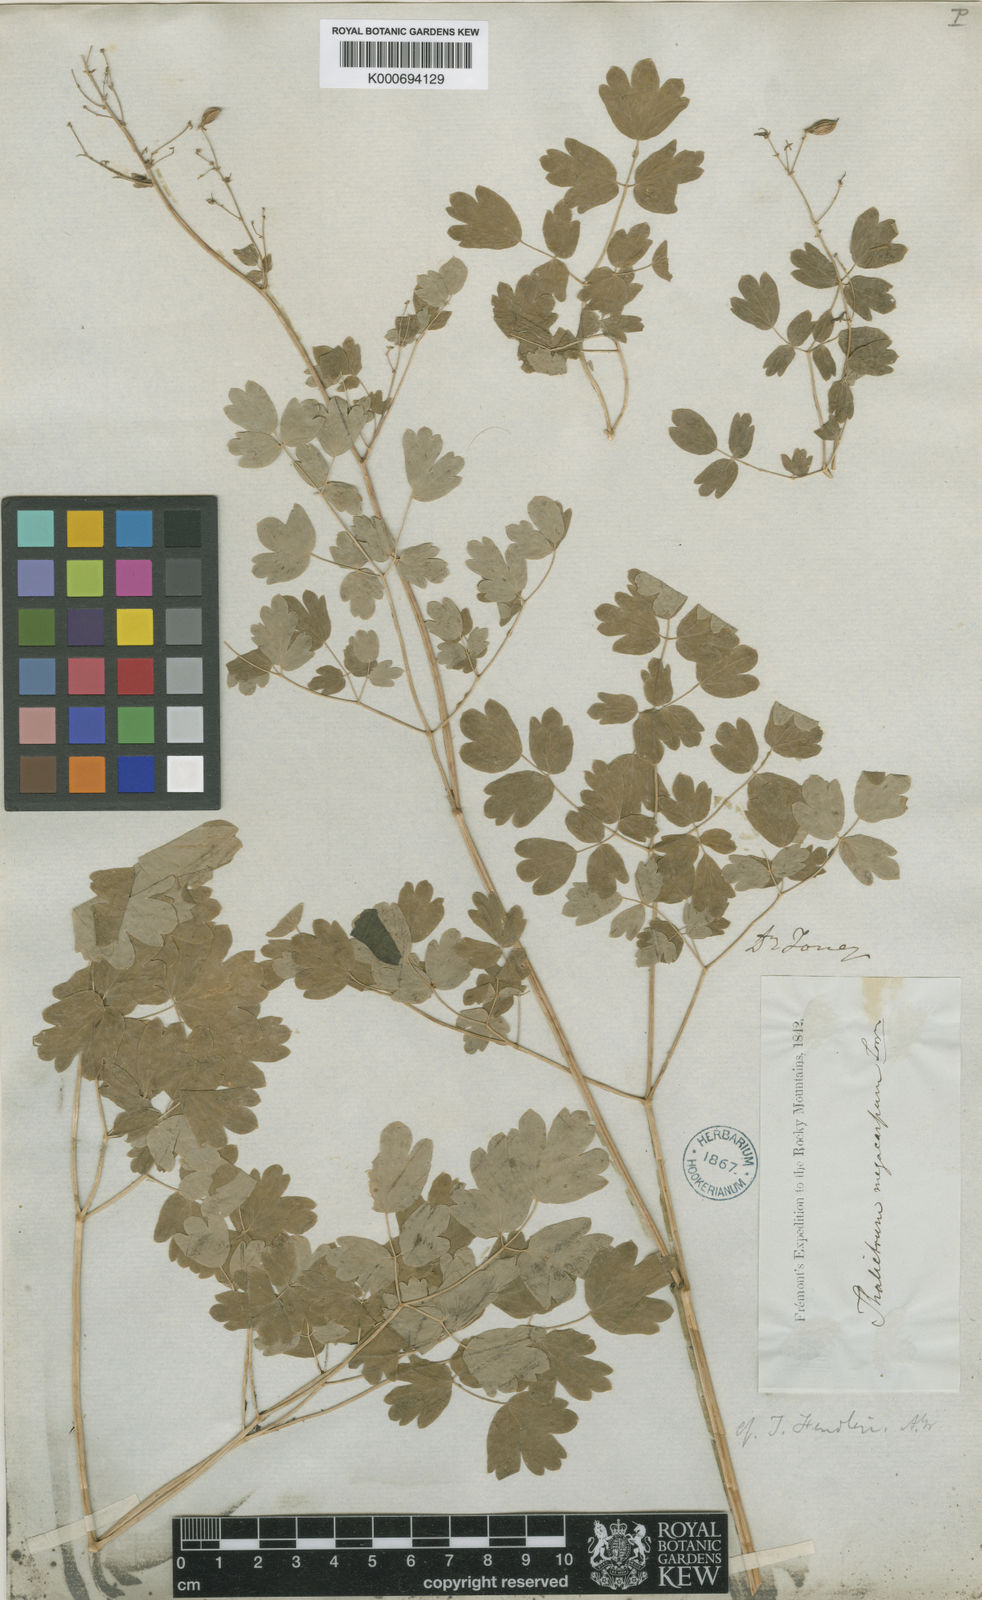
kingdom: Plantae
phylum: Tracheophyta
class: Magnoliopsida
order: Ranunculales
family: Ranunculaceae
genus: Thalictrum
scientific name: Thalictrum occidentale
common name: Western meadow-rue
